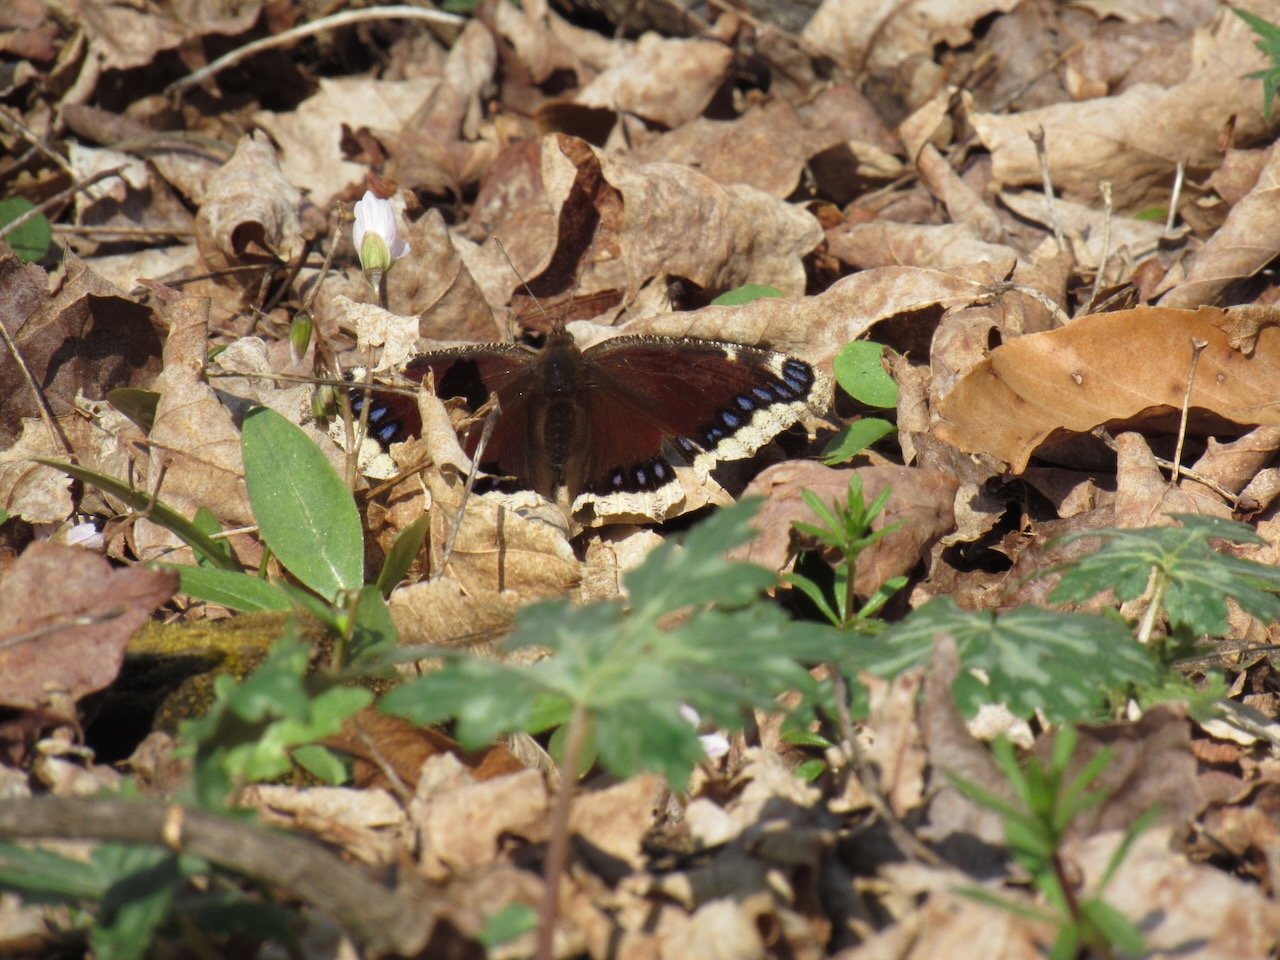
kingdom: Animalia
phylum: Arthropoda
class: Insecta
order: Lepidoptera
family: Nymphalidae
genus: Nymphalis
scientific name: Nymphalis antiopa
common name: Mourning Cloak
